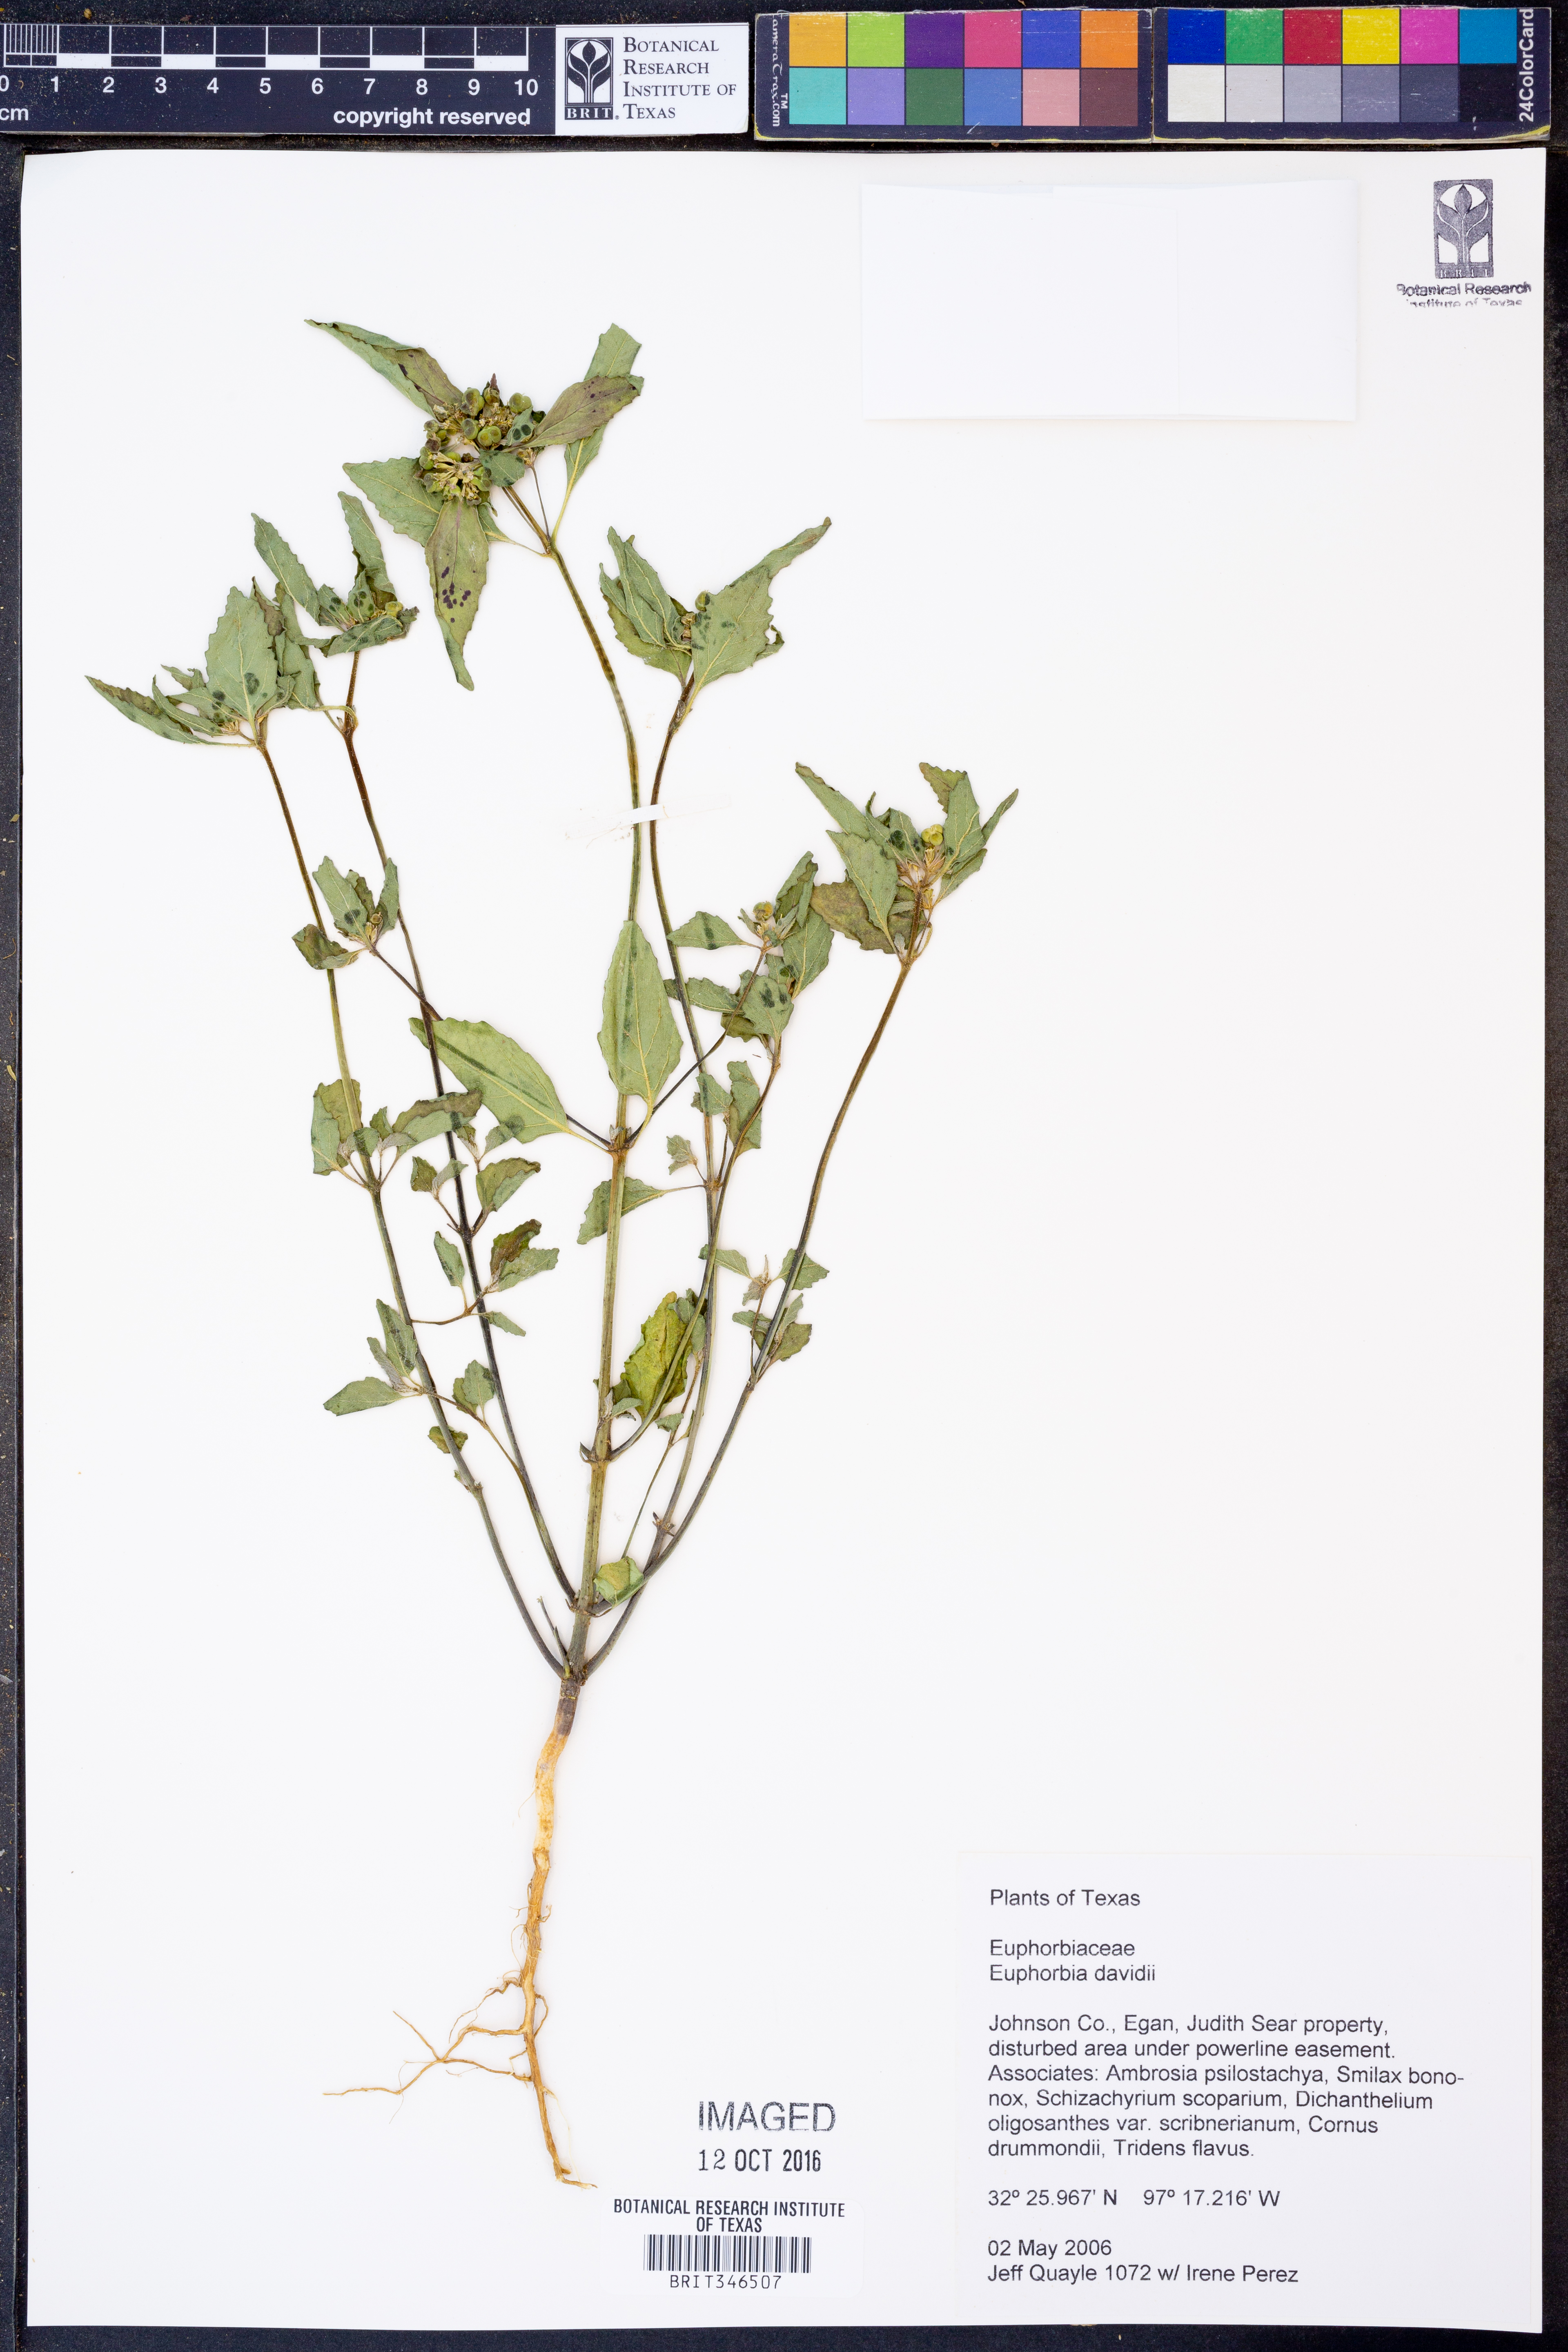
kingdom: Plantae
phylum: Tracheophyta
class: Magnoliopsida
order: Malpighiales
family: Euphorbiaceae
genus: Euphorbia
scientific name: Euphorbia davidii
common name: David's spurge
